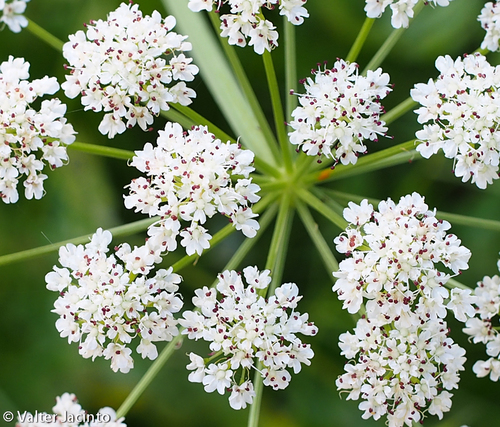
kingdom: Plantae
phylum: Tracheophyta
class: Magnoliopsida
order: Apiales
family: Apiaceae
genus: Oenanthe
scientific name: Oenanthe crocata
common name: Hemlock water-dropwort
